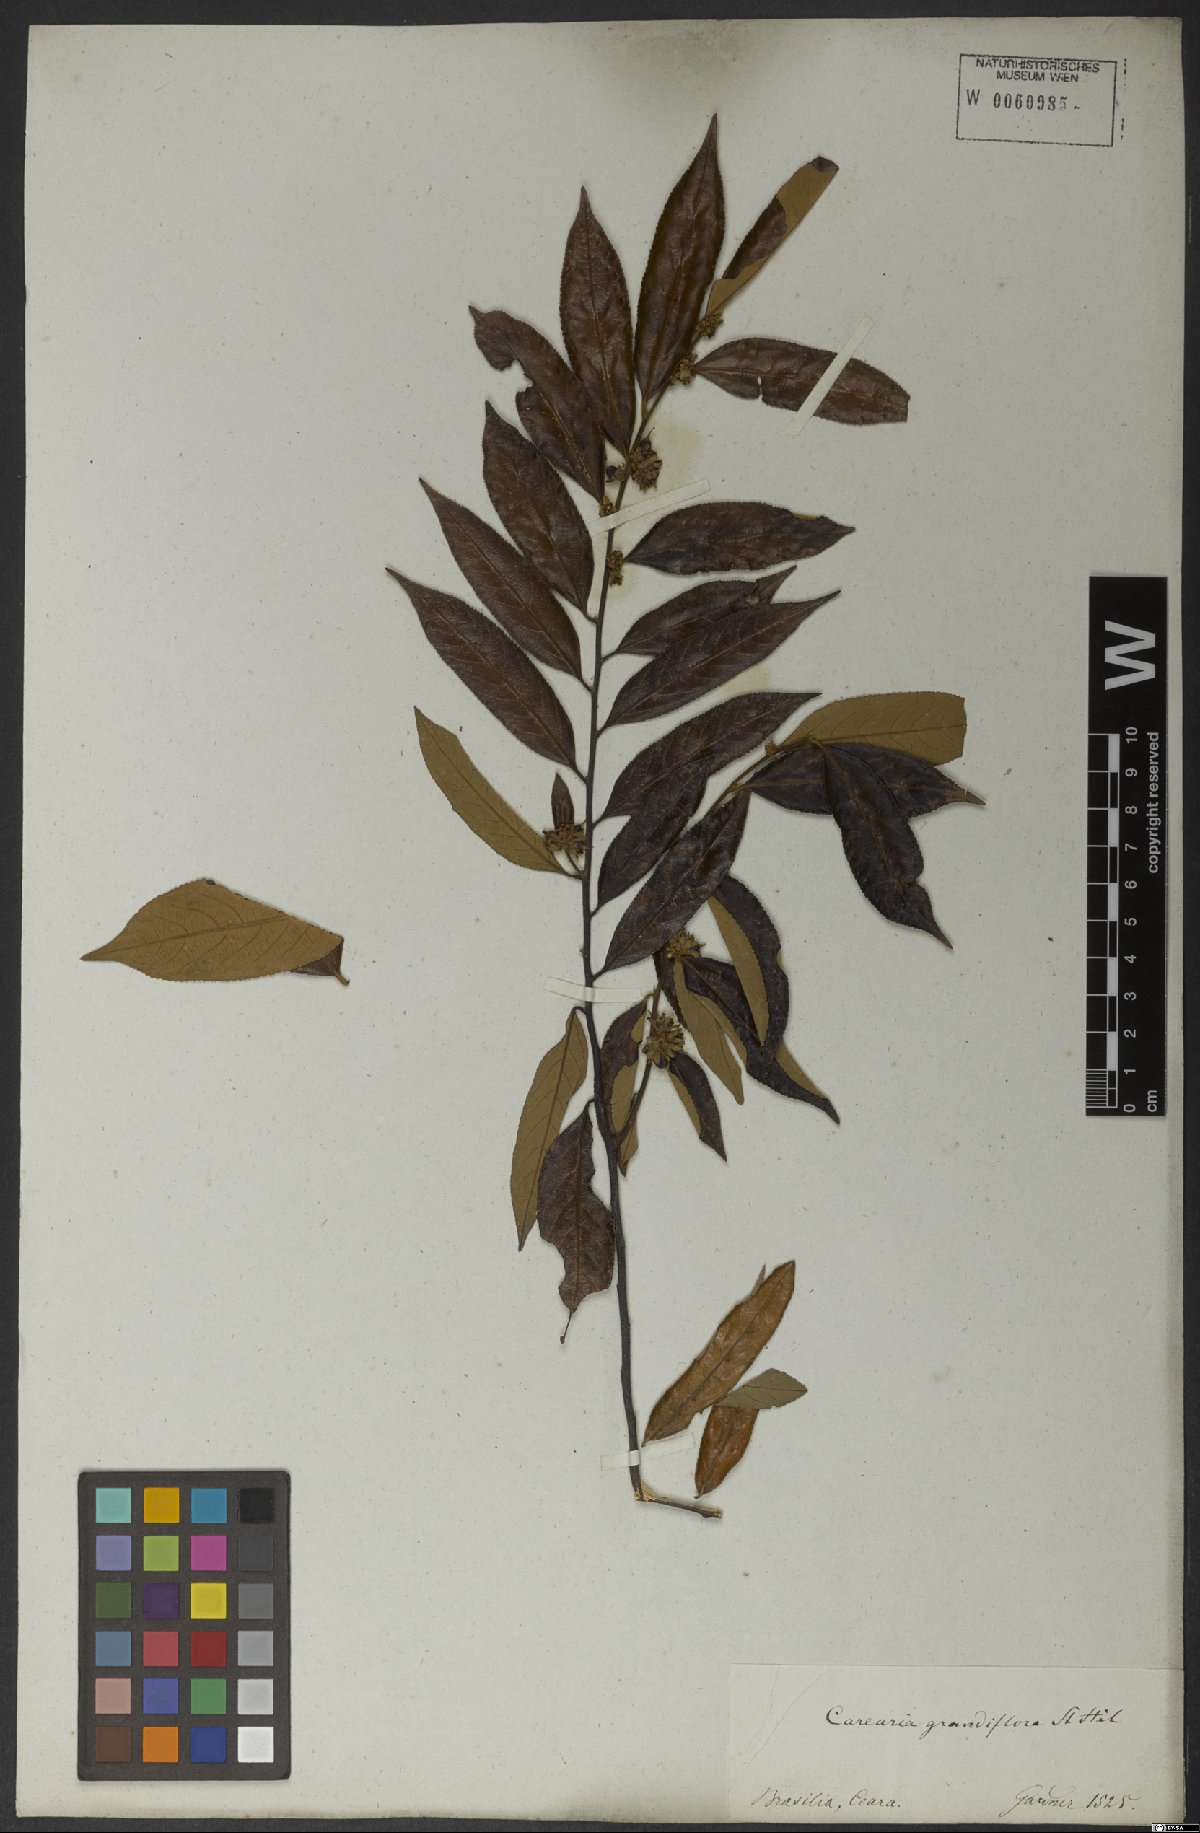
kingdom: Plantae
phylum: Tracheophyta
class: Magnoliopsida
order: Malpighiales
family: Salicaceae
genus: Casearia
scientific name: Casearia grandiflora
